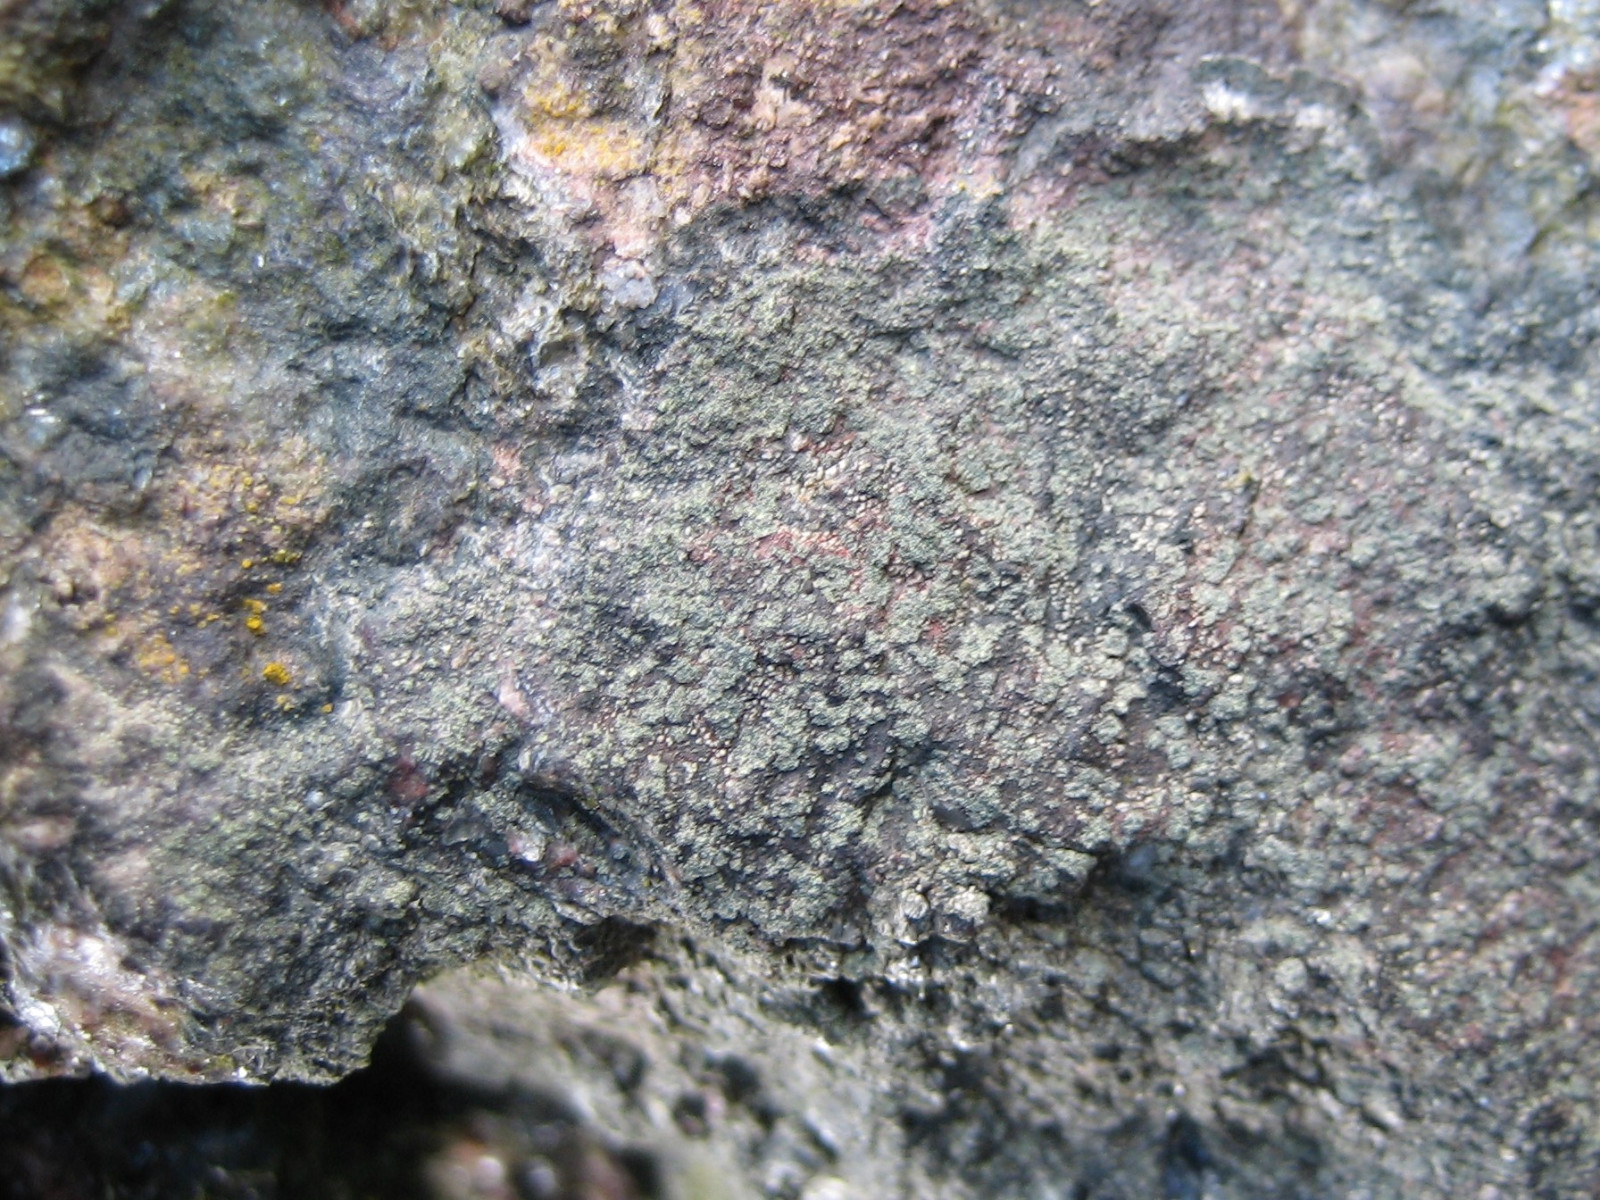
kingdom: Fungi
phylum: Ascomycota
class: Lecanoromycetes
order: Lecanorales
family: Lecanoraceae
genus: Lecidella
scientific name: Lecidella scabra
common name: skurvet skivelav
